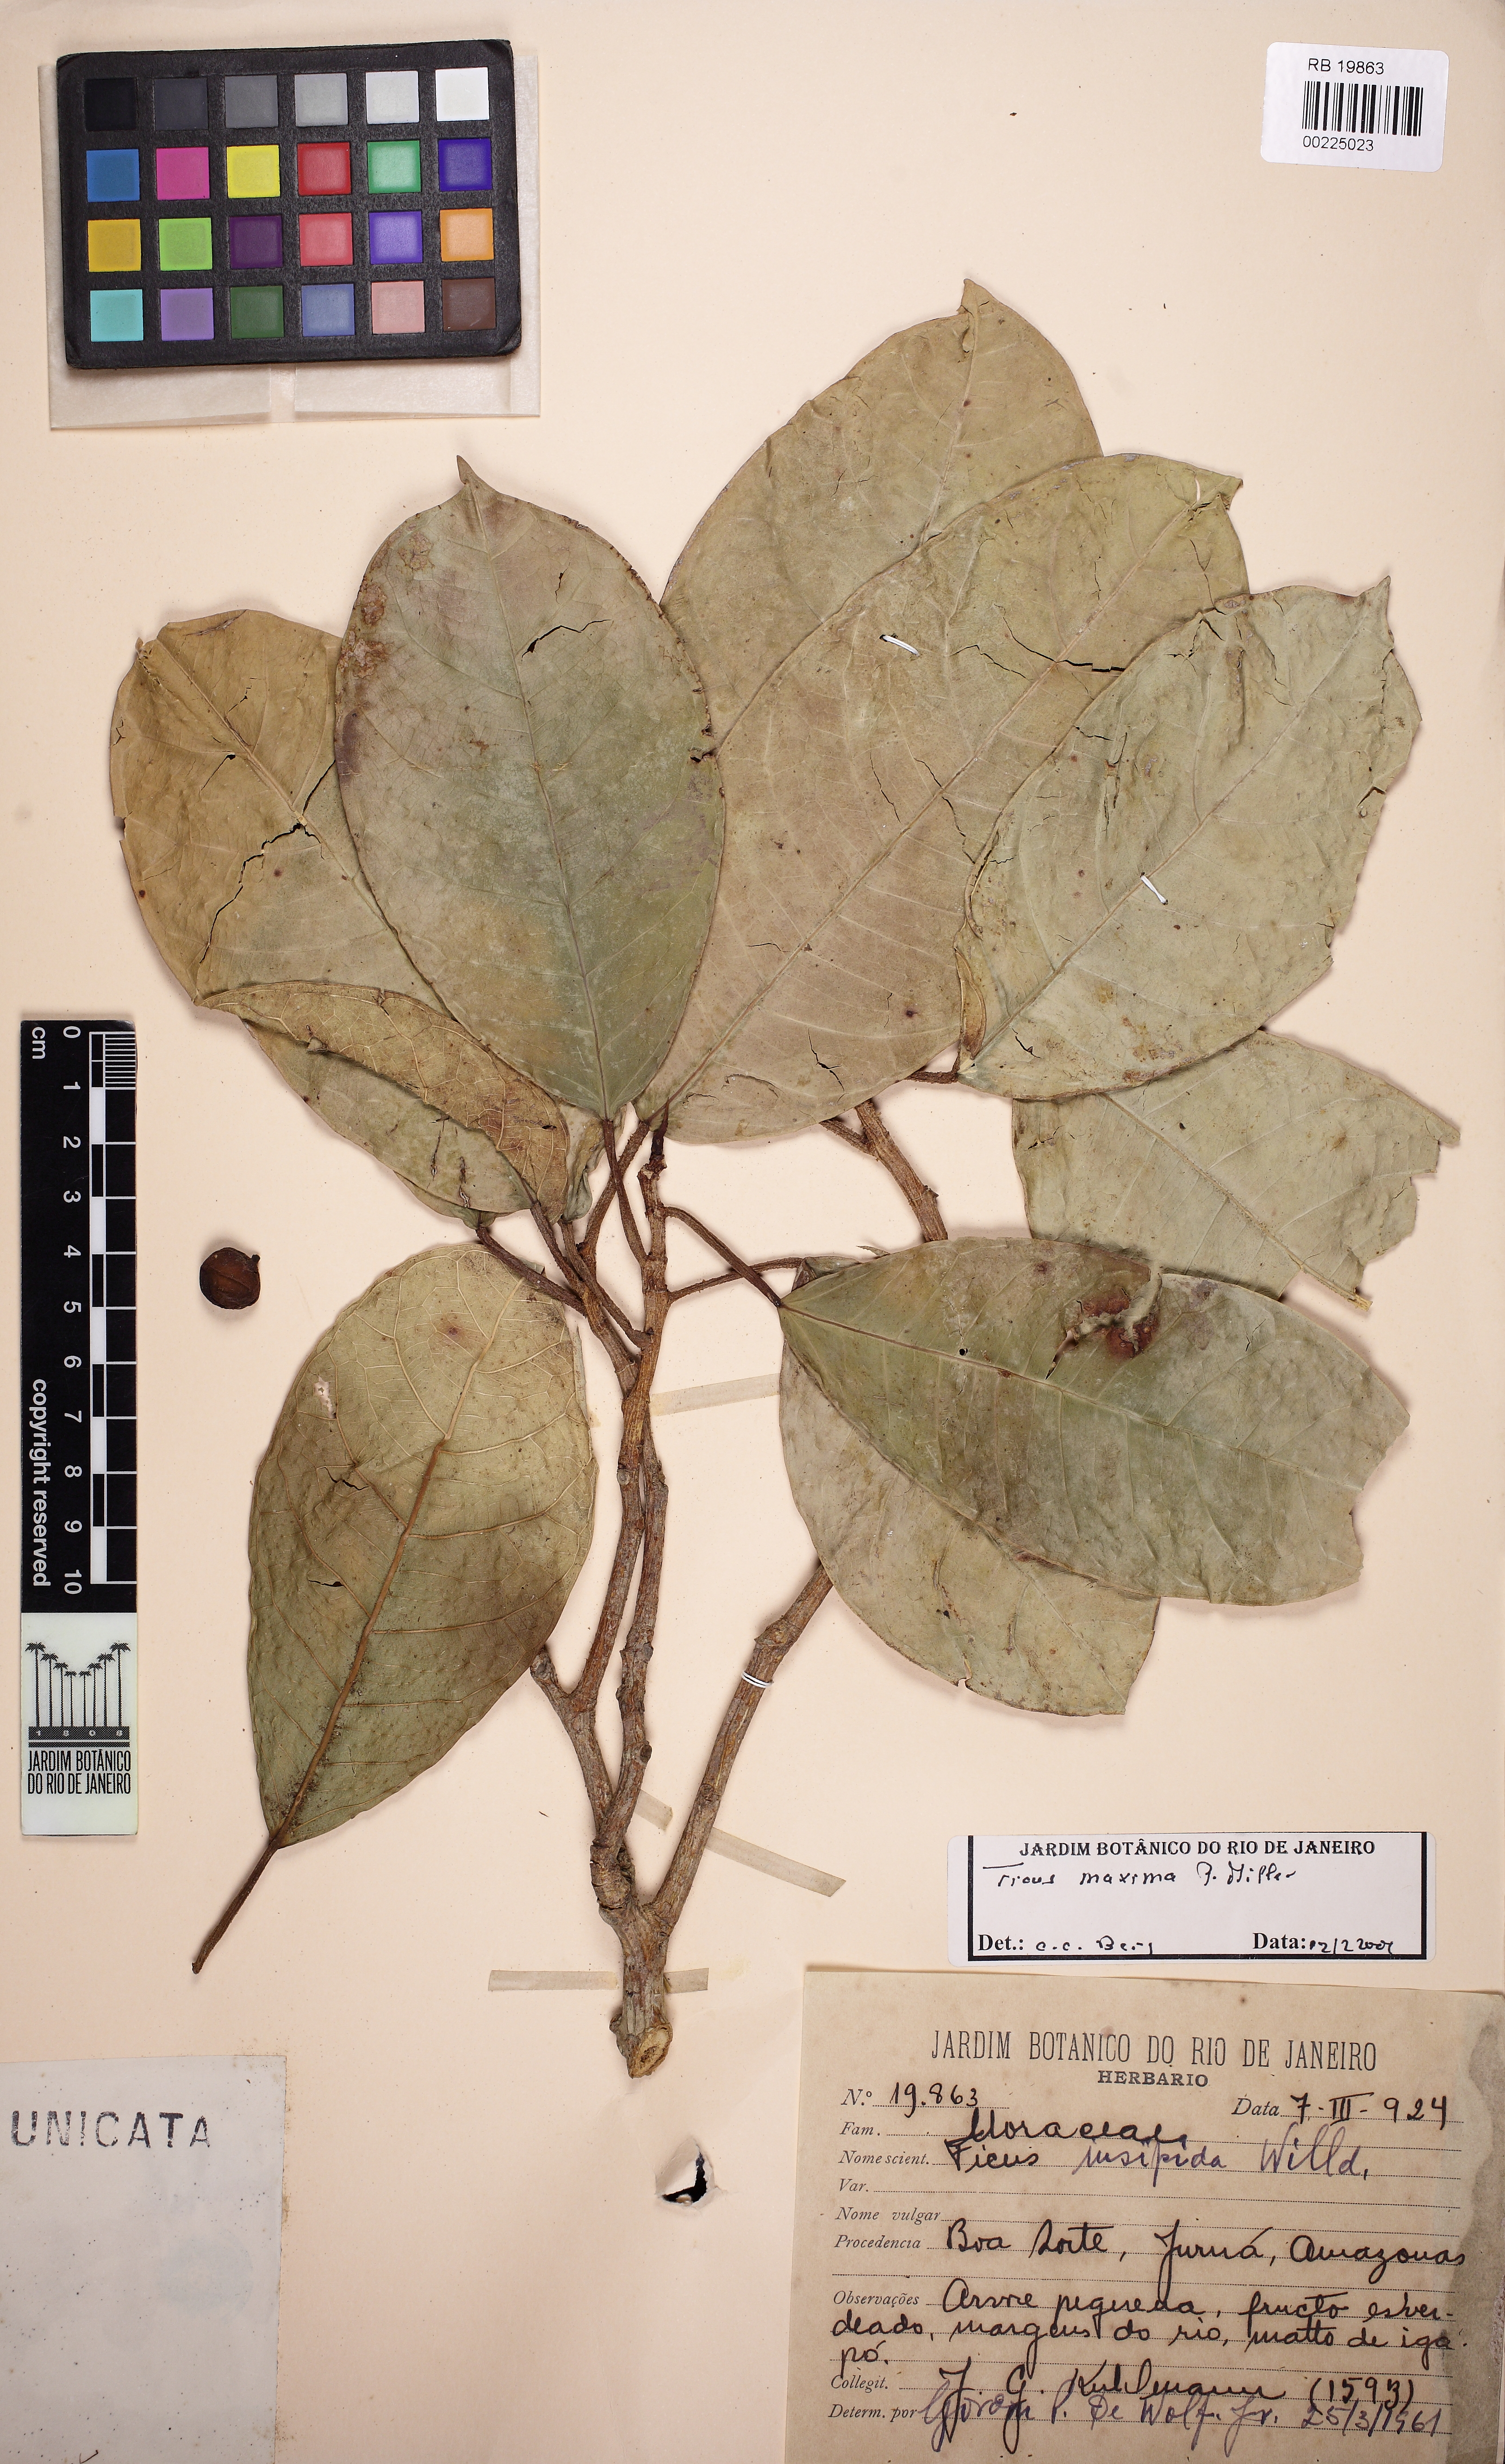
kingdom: Plantae
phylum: Tracheophyta
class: Magnoliopsida
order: Rosales
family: Moraceae
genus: Ficus
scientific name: Ficus maxima
